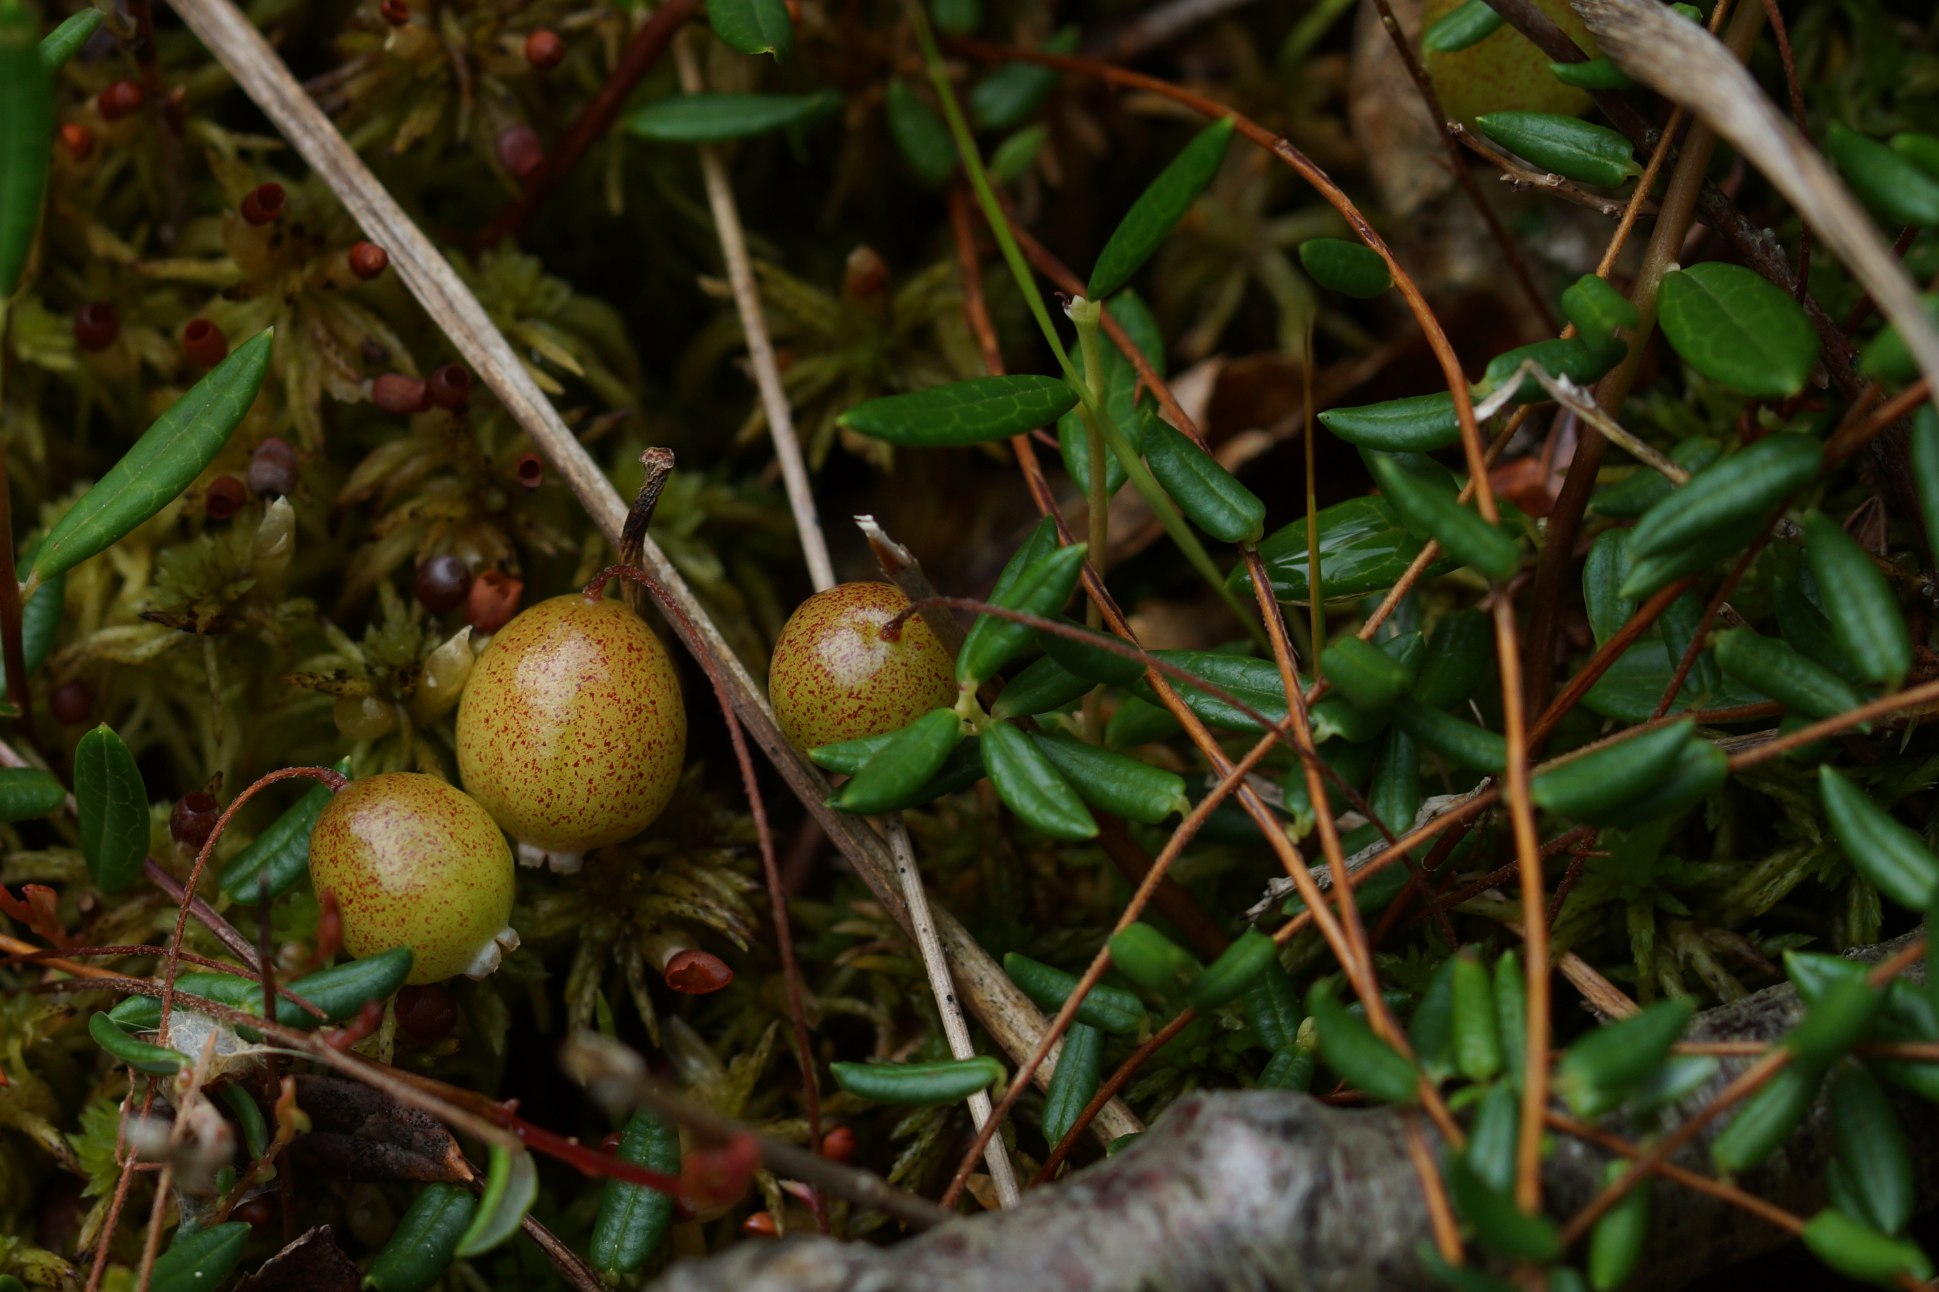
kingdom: Plantae
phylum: Tracheophyta
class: Magnoliopsida
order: Ericales
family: Ericaceae
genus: Vaccinium
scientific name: Vaccinium oxycoccos
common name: Tranebær
